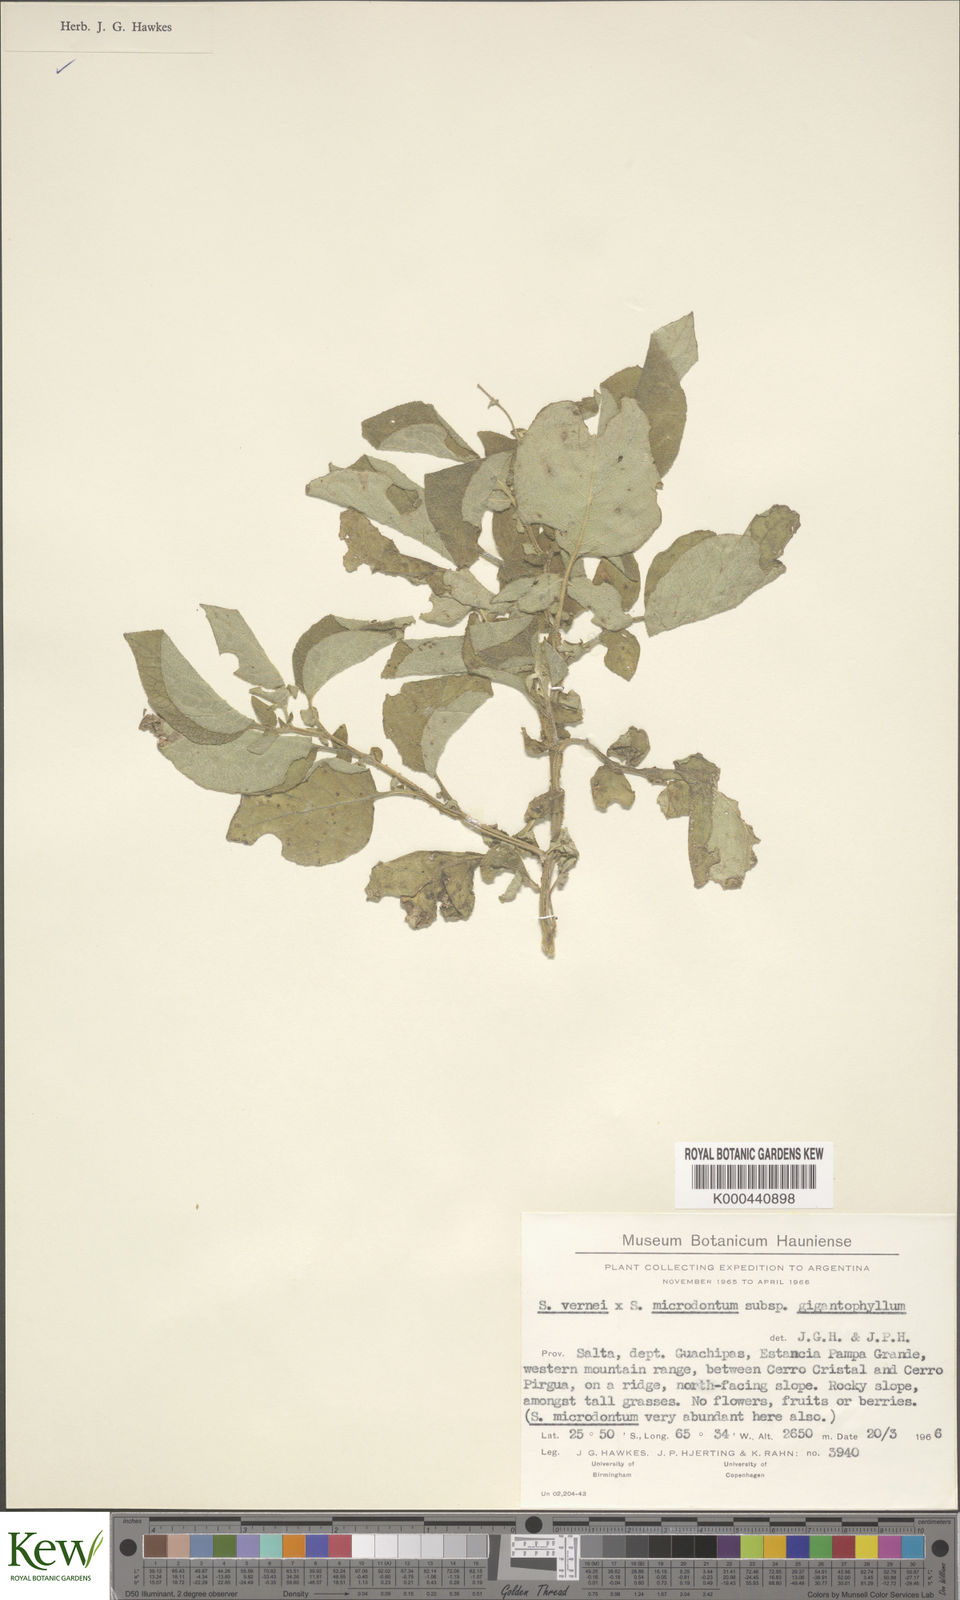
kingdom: Plantae
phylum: Tracheophyta
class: Magnoliopsida
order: Solanales
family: Solanaceae
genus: Solanum
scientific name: Solanum microdontum
